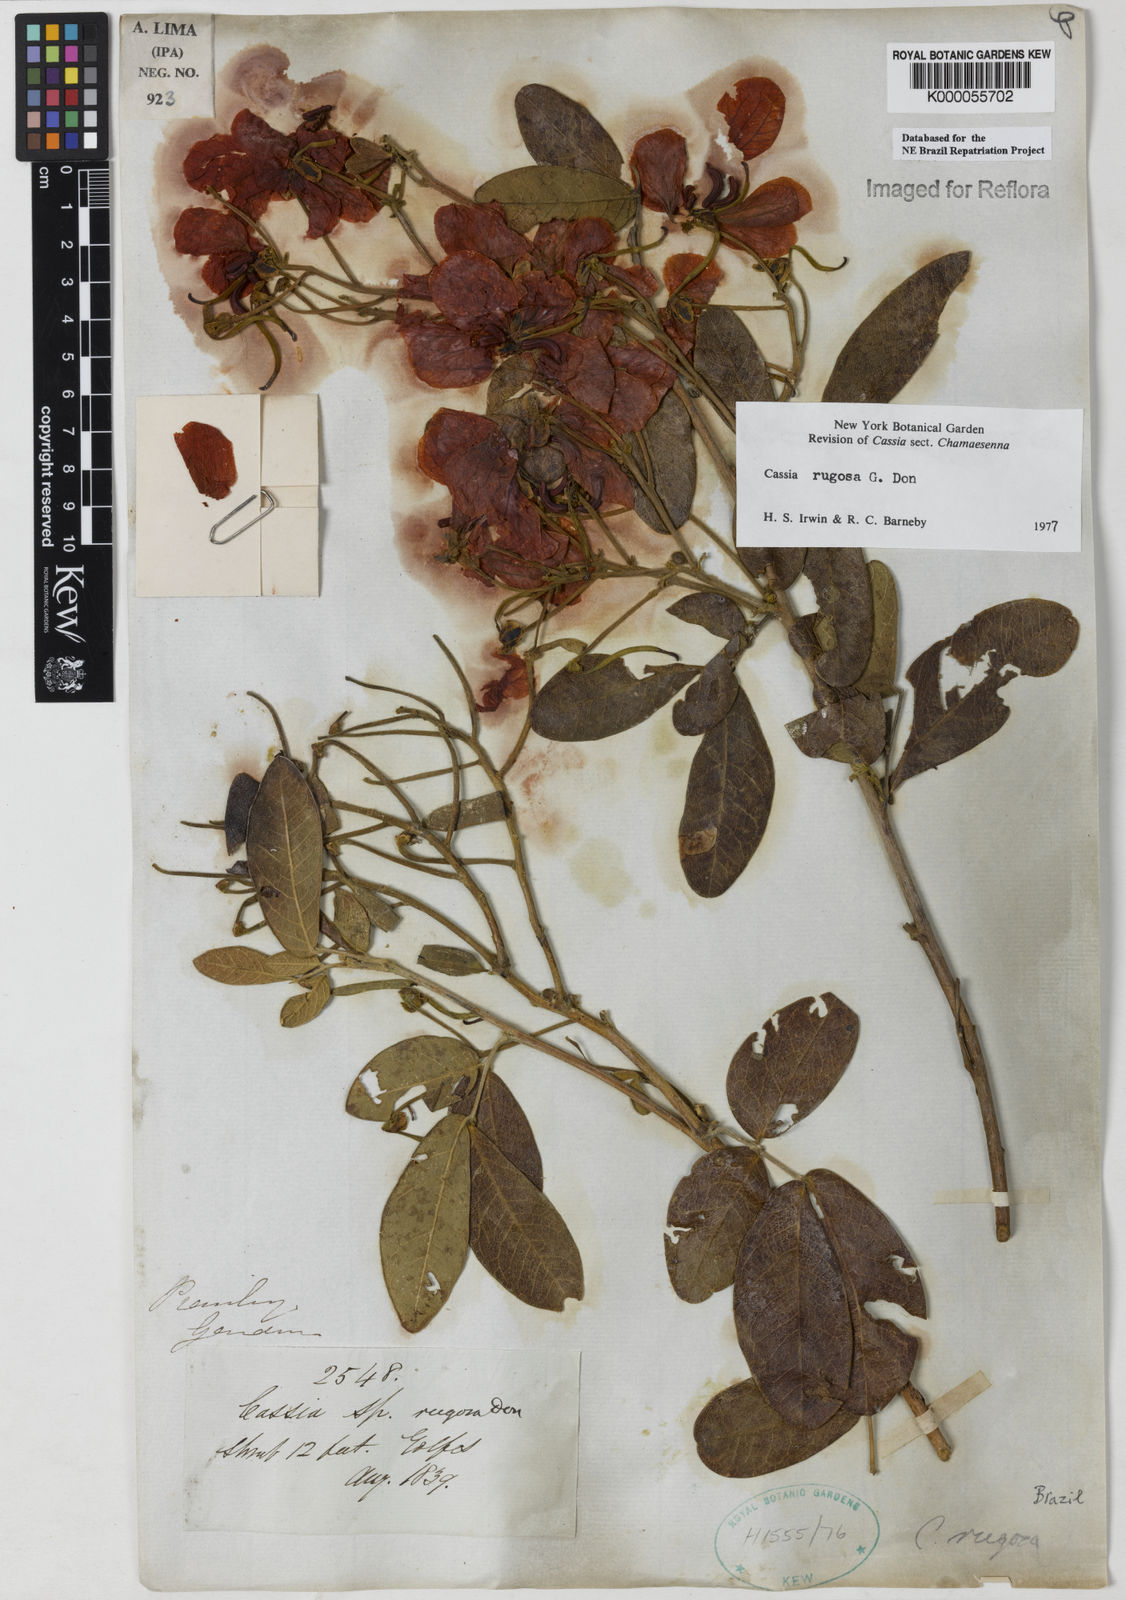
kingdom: Plantae
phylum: Tracheophyta
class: Magnoliopsida
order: Fabales
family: Fabaceae
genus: Senna
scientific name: Senna rugosa
